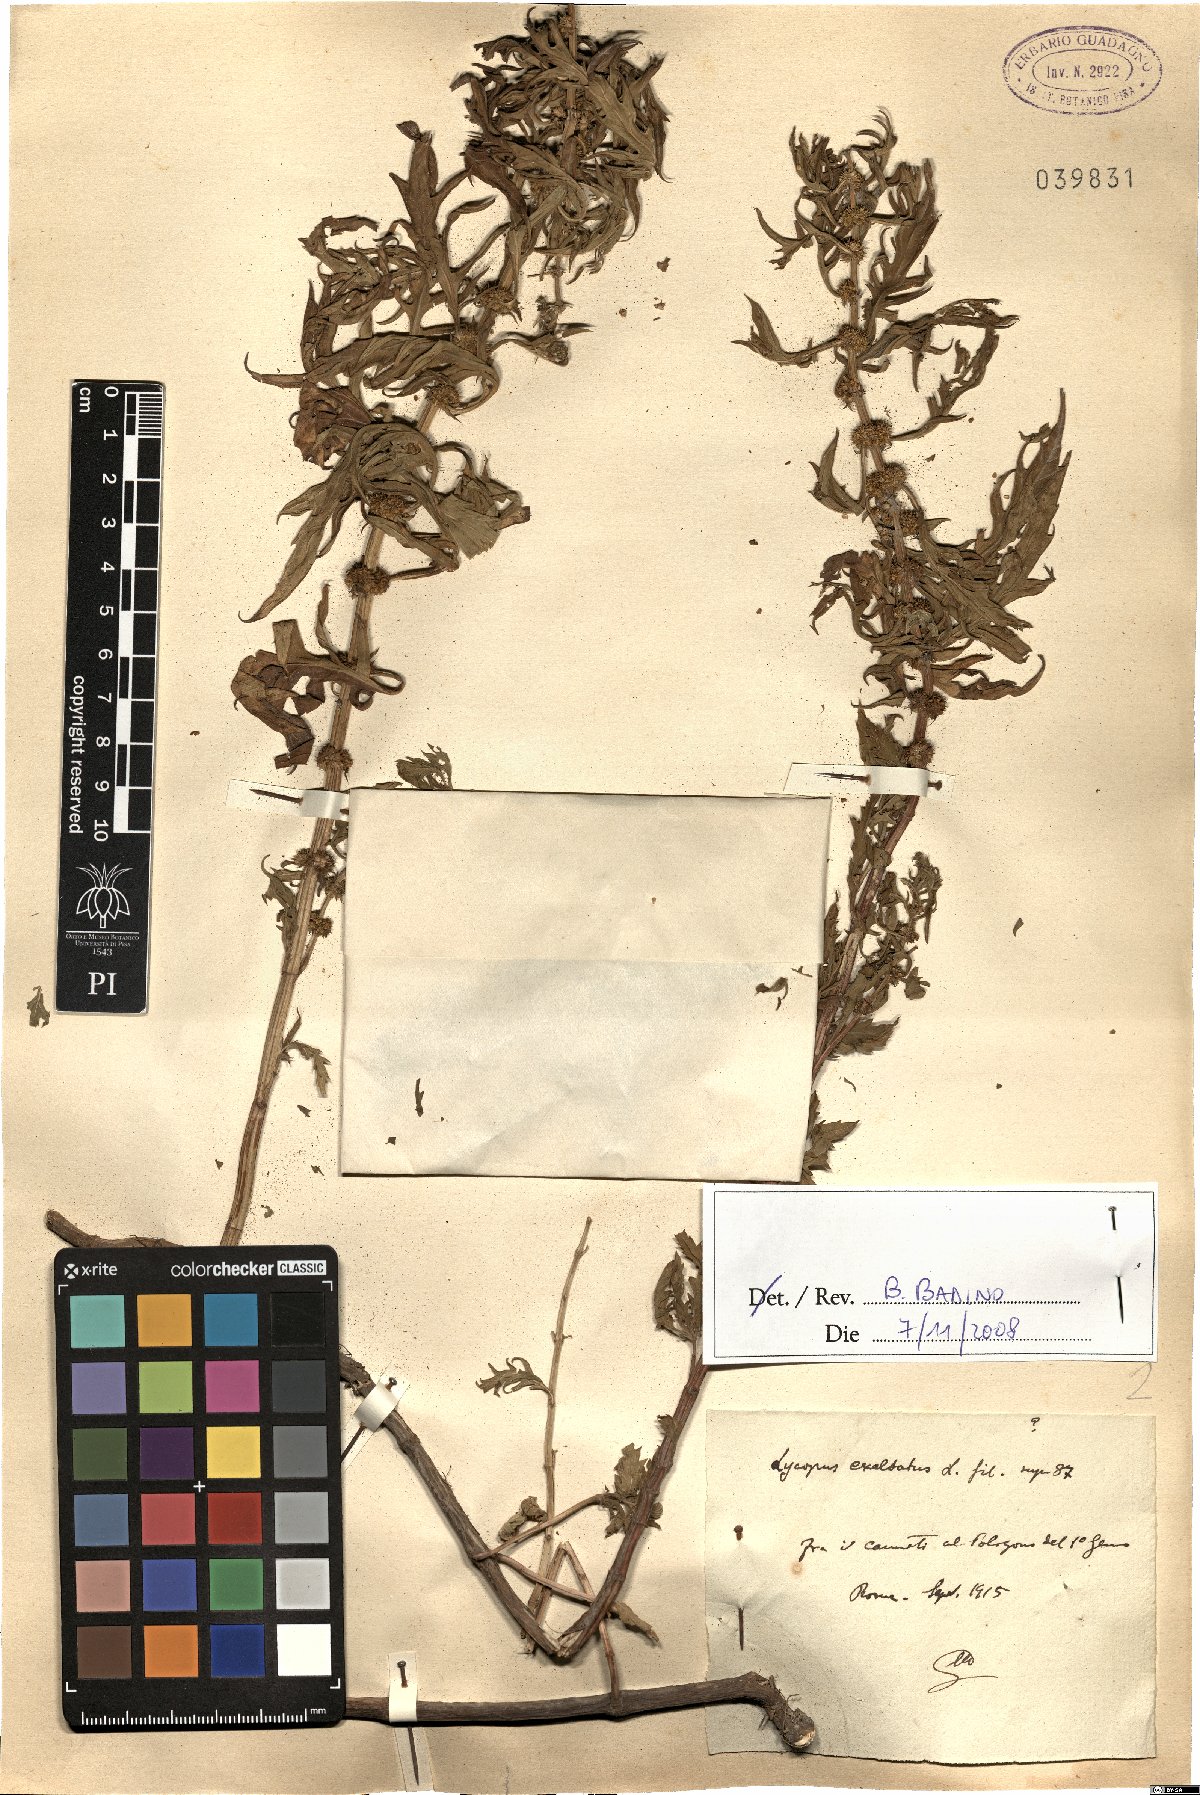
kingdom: Plantae
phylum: Tracheophyta
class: Magnoliopsida
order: Lamiales
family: Lamiaceae
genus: Lycopus
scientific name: Lycopus exaltatus
